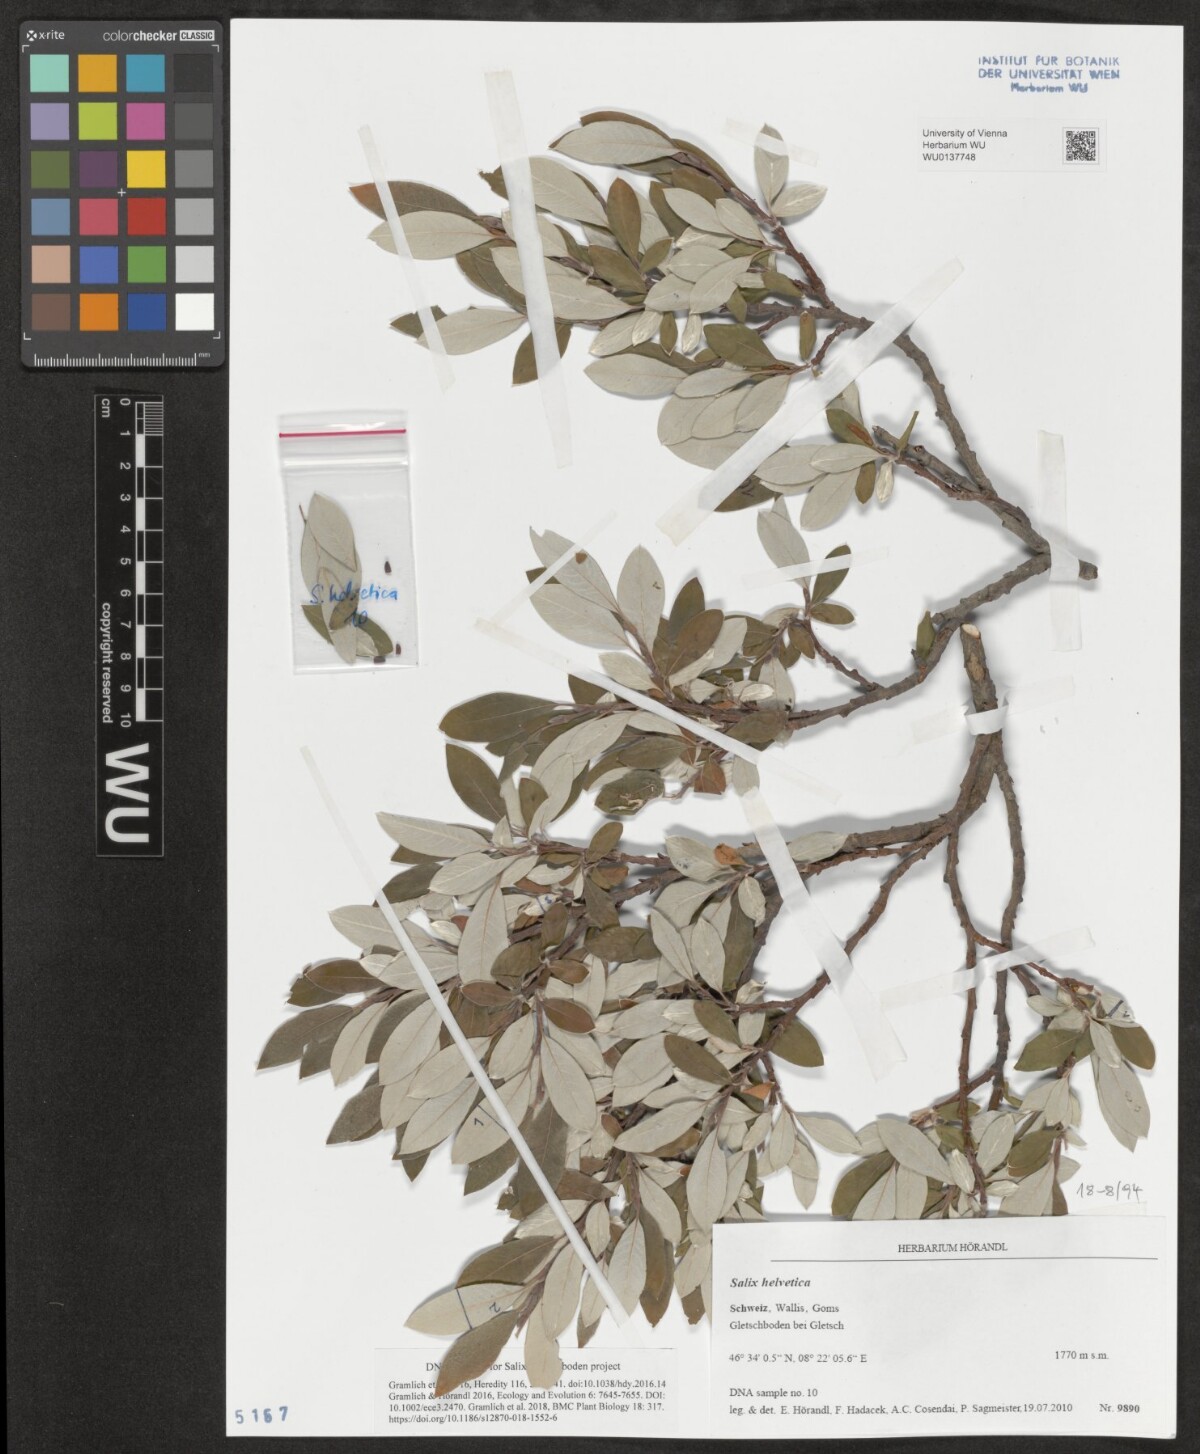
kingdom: Plantae
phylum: Tracheophyta
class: Magnoliopsida
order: Malpighiales
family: Salicaceae
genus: Salix
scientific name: Salix helvetica
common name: Swiss willow
